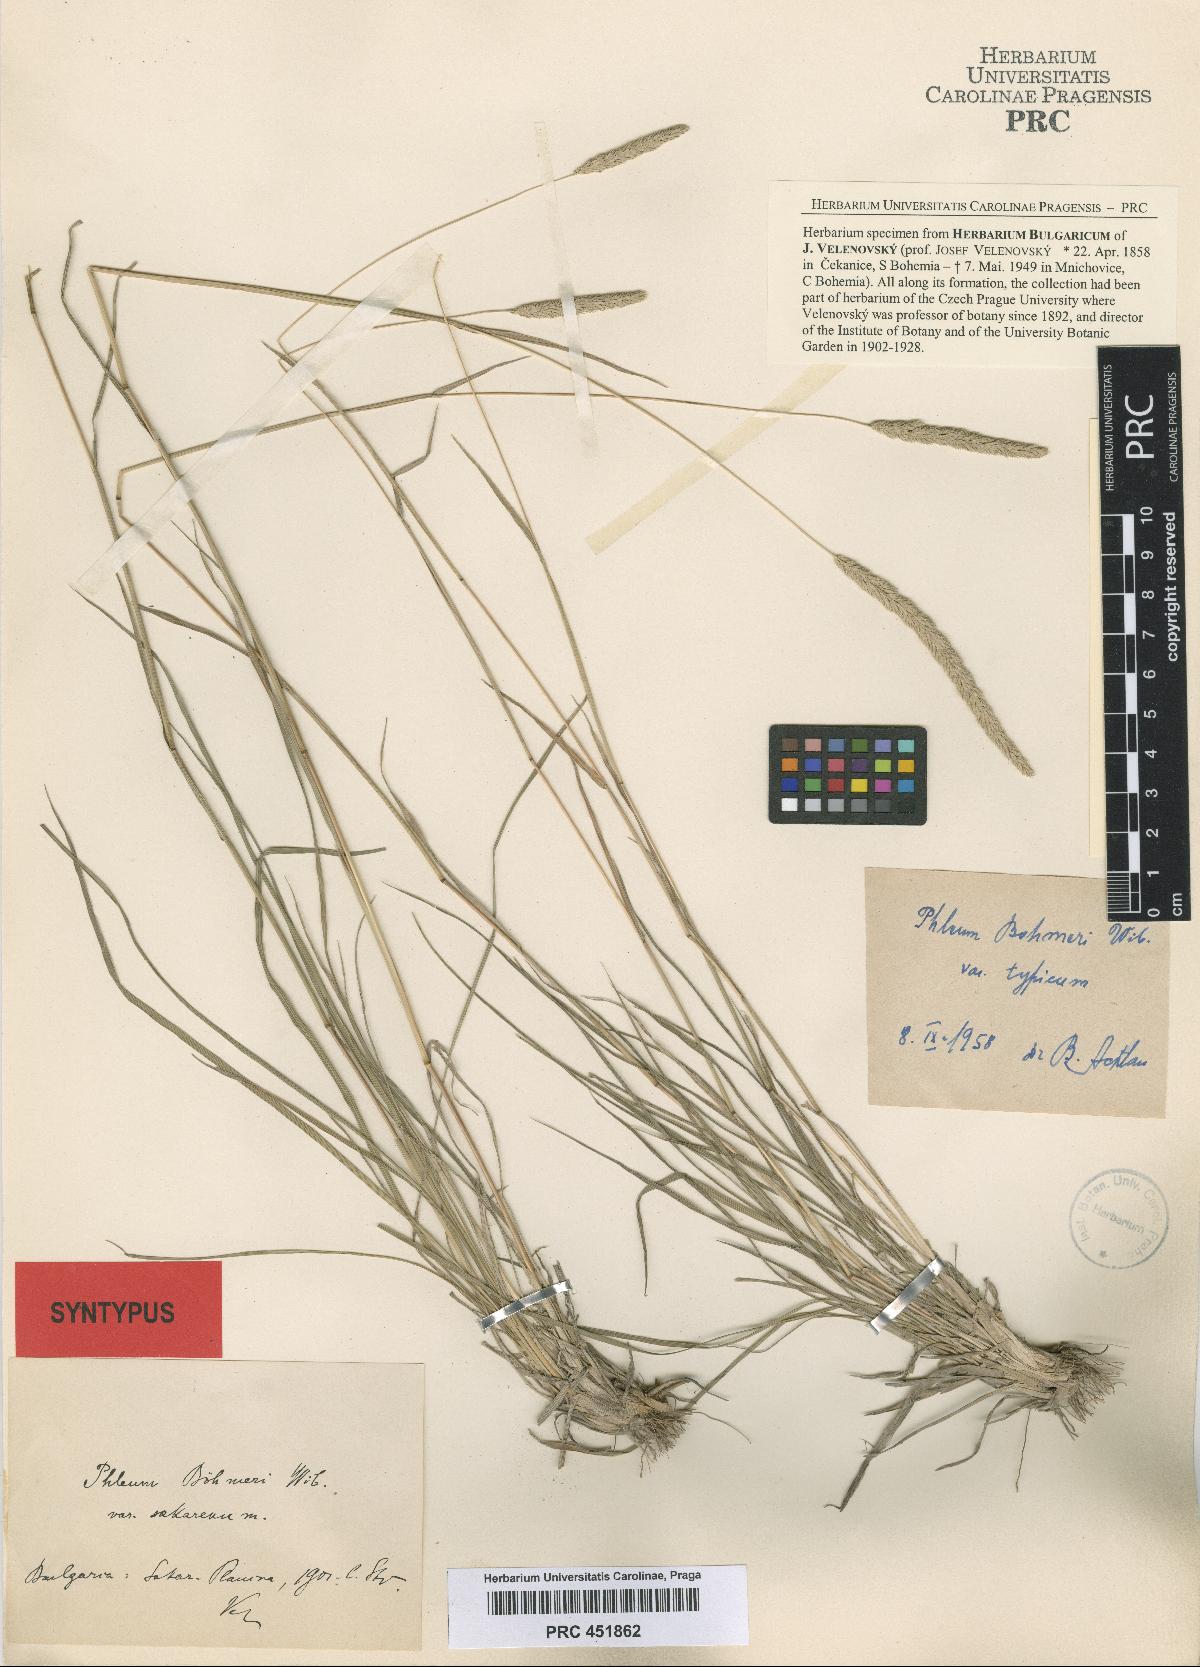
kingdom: Plantae
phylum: Tracheophyta
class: Liliopsida
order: Poales
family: Poaceae
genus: Phleum
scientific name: Phleum phleoides
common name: Purple-stem cat's-tail
